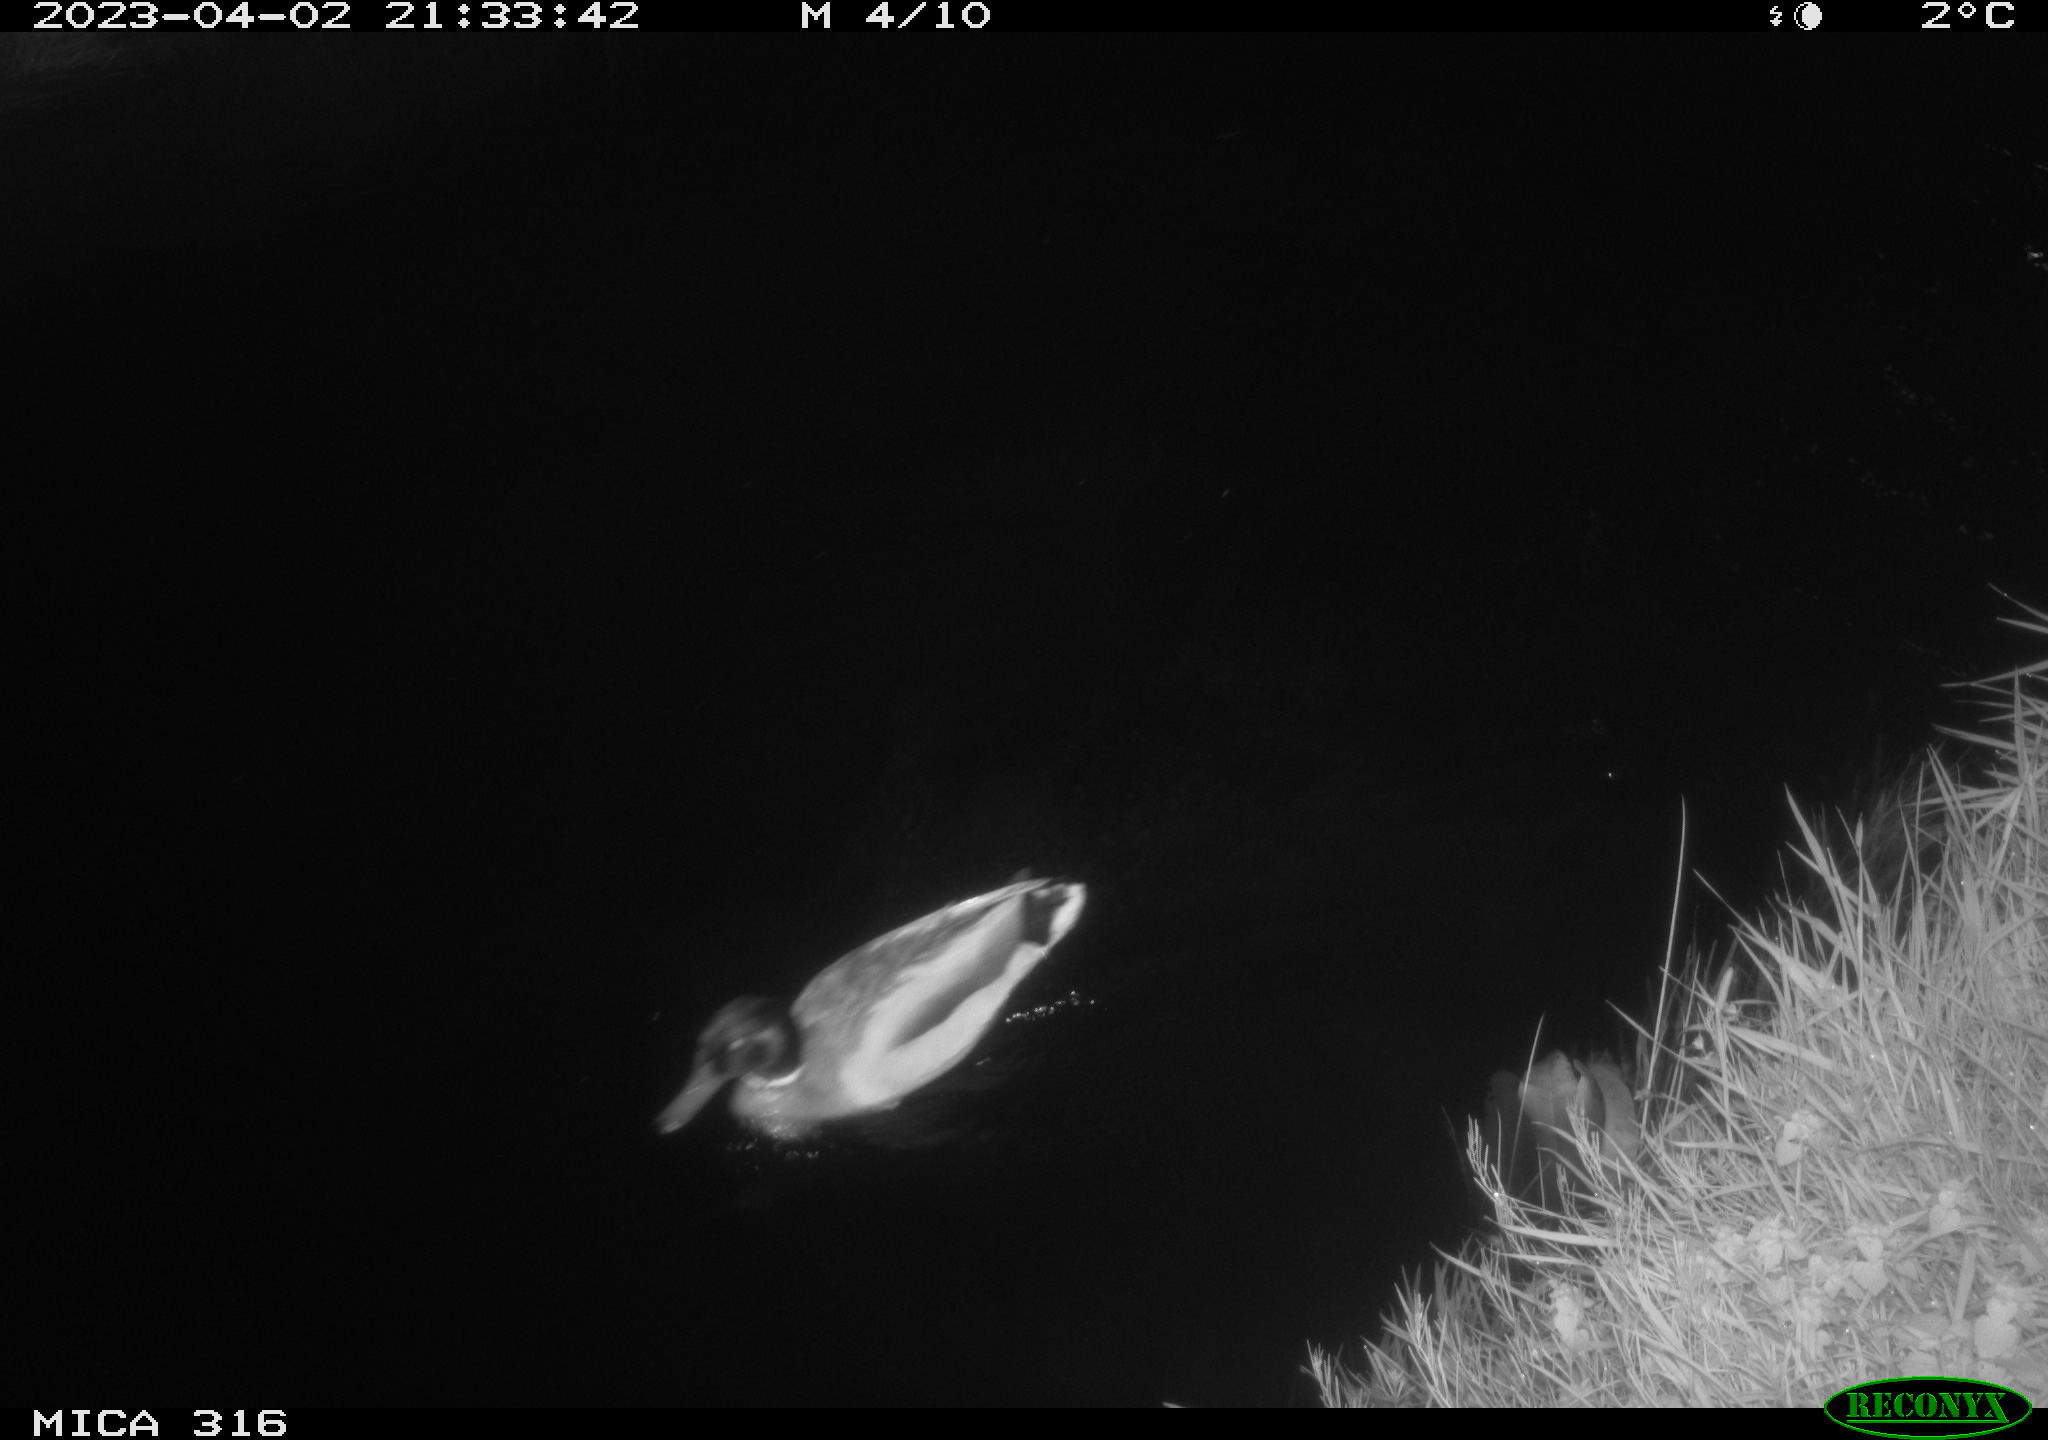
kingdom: Animalia
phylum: Chordata
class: Aves
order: Anseriformes
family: Anatidae
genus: Anas
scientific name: Anas
